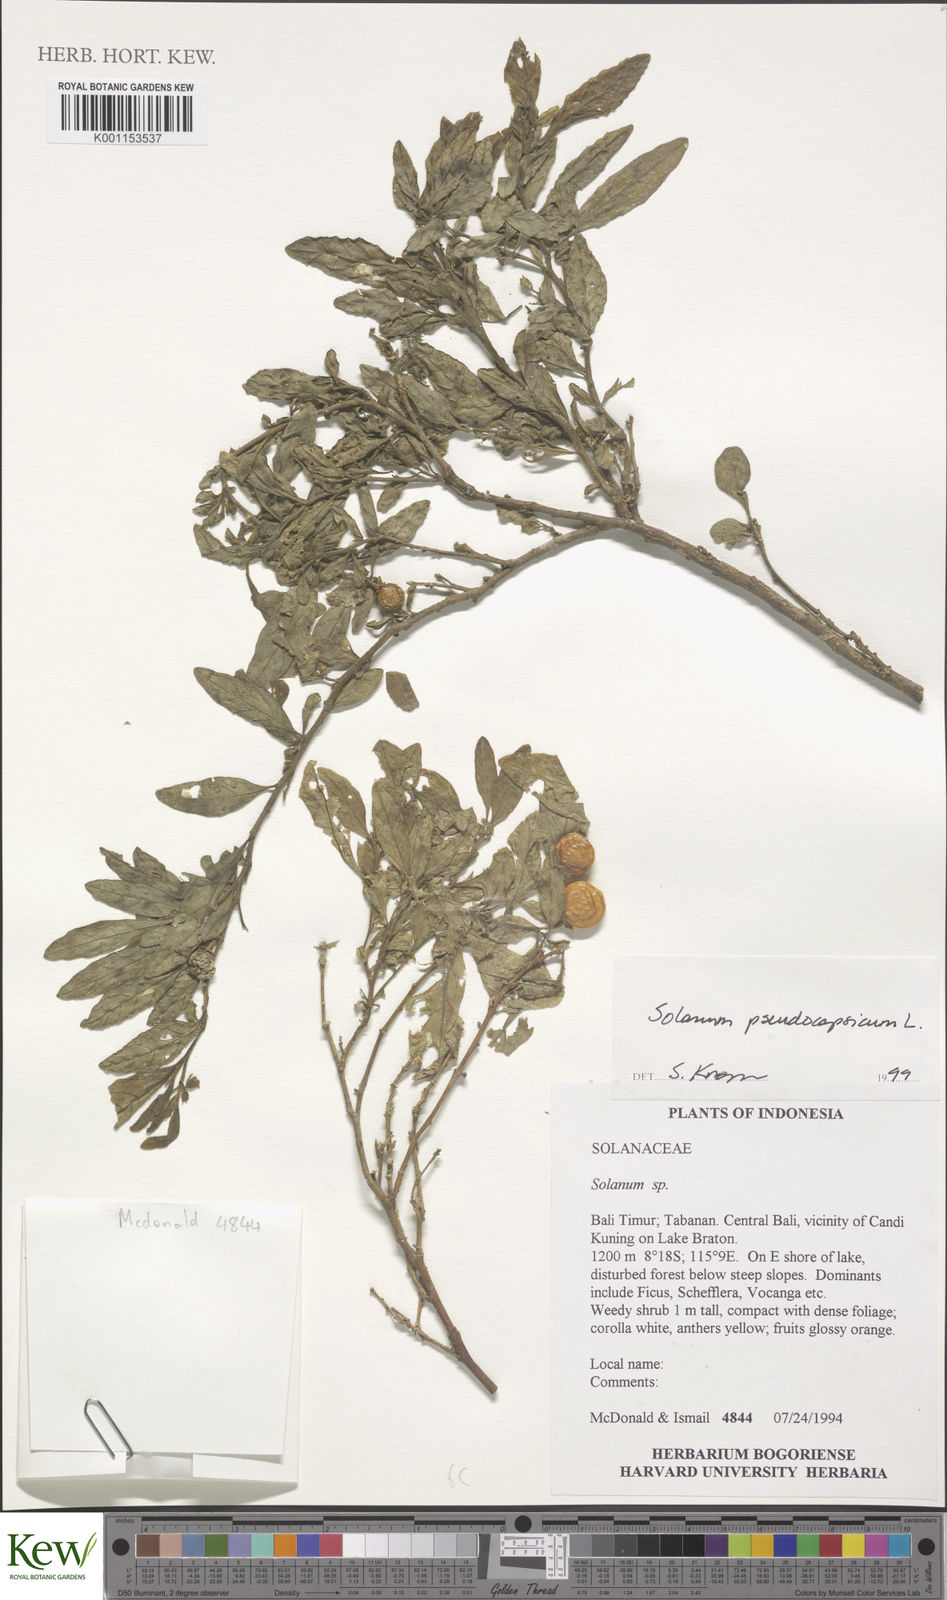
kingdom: Plantae
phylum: Tracheophyta
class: Magnoliopsida
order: Solanales
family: Solanaceae
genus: Solanum
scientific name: Solanum pseudocapsicum
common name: Jerusalem cherry
